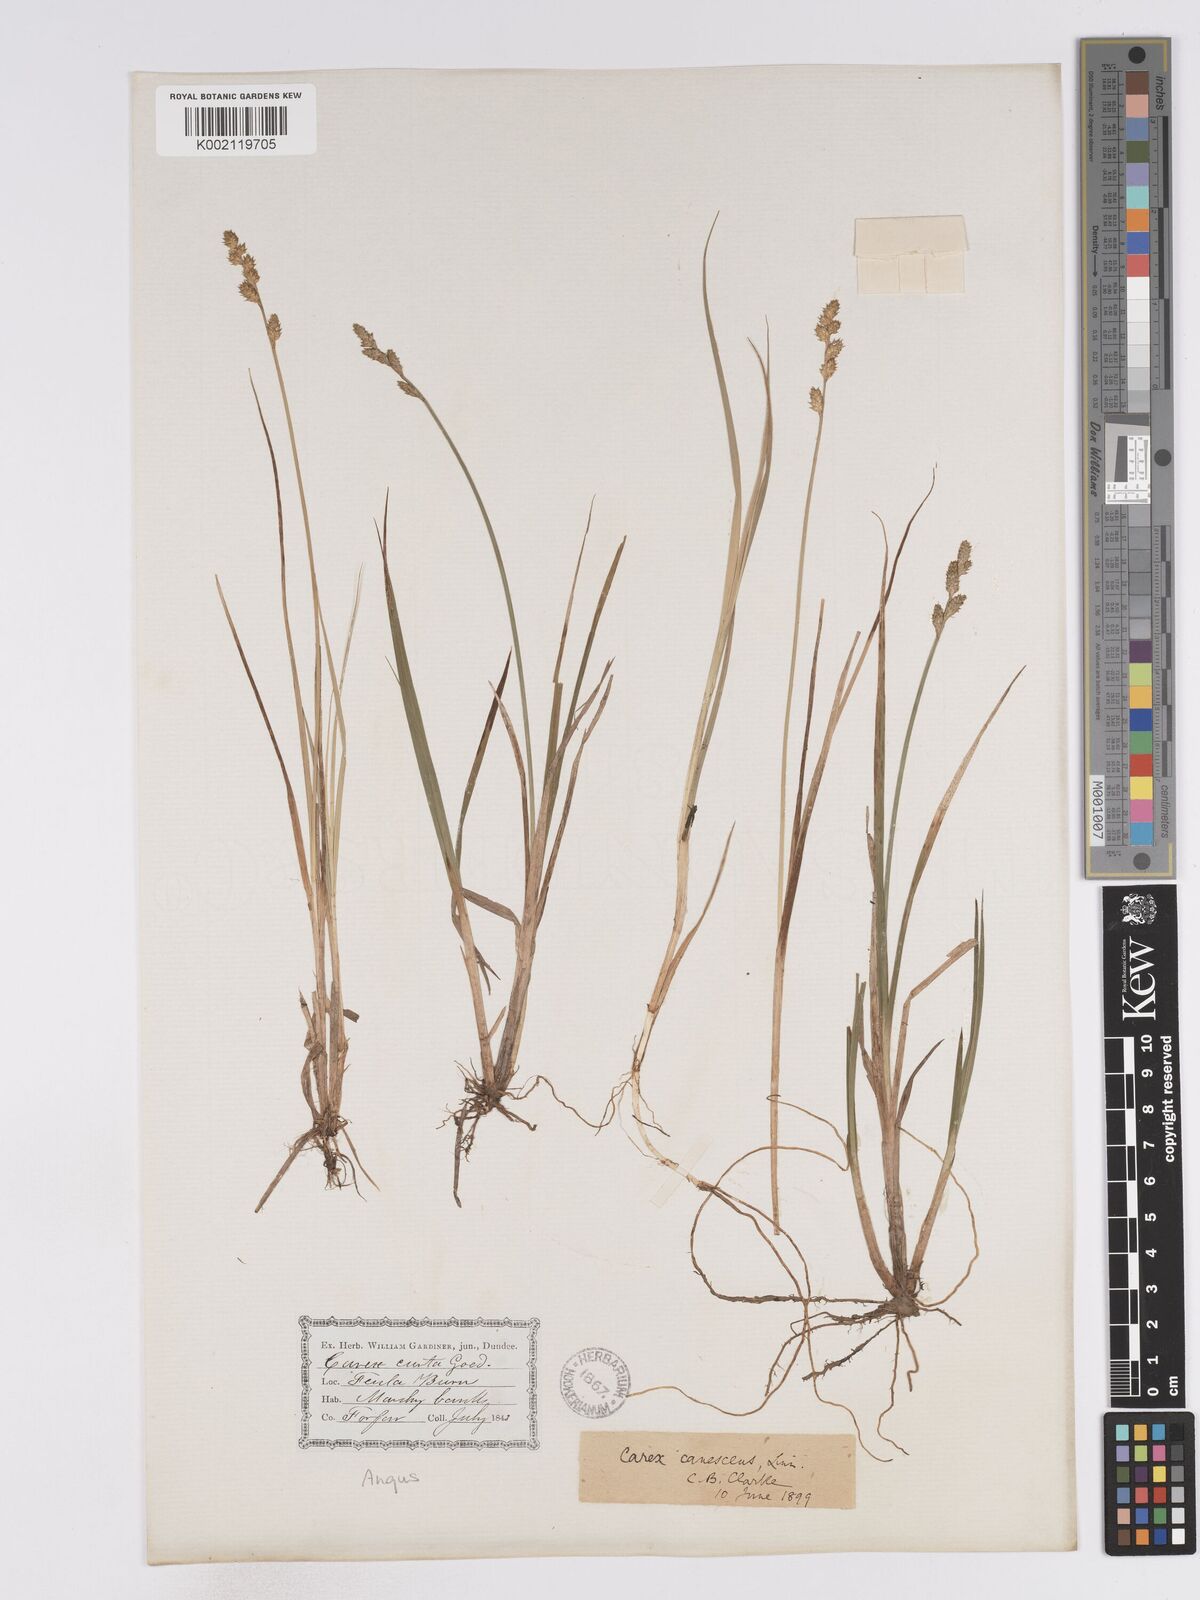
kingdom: Plantae
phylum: Tracheophyta
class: Liliopsida
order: Poales
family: Cyperaceae
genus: Carex
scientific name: Carex curta
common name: White sedge
